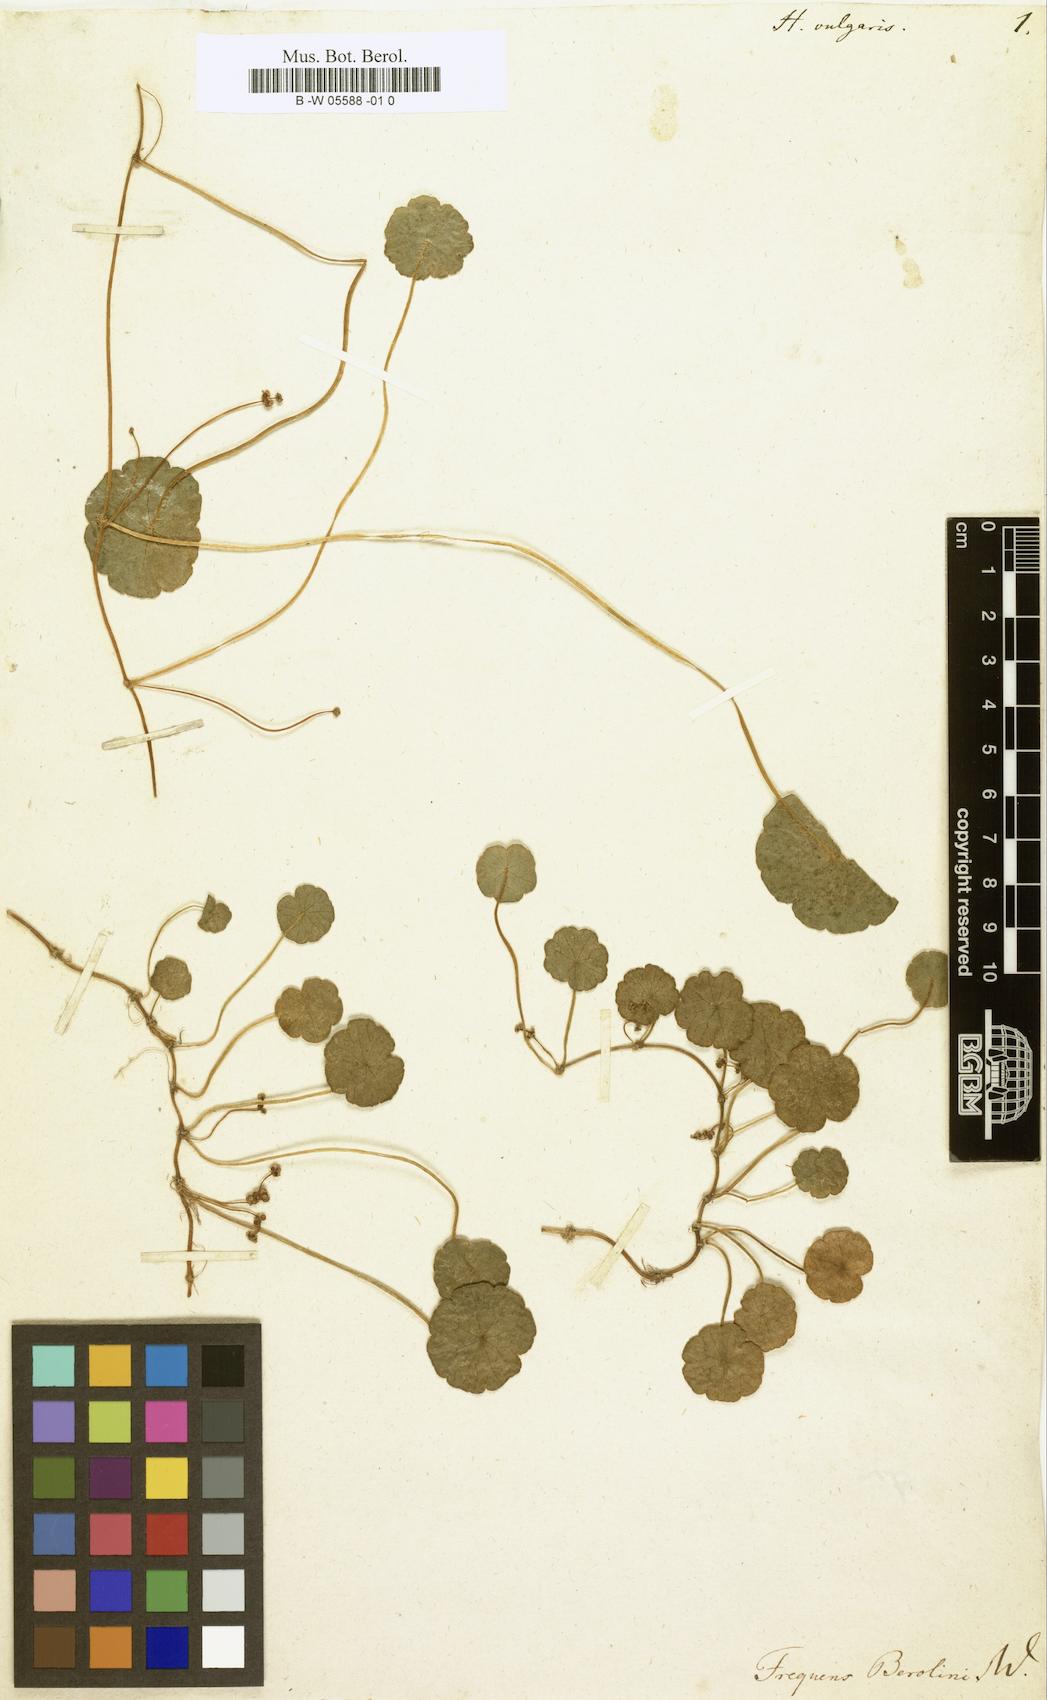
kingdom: Plantae
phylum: Tracheophyta
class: Magnoliopsida
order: Apiales
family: Araliaceae
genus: Hydrocotyle
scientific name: Hydrocotyle vulgaris
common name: Marsh pennywort
